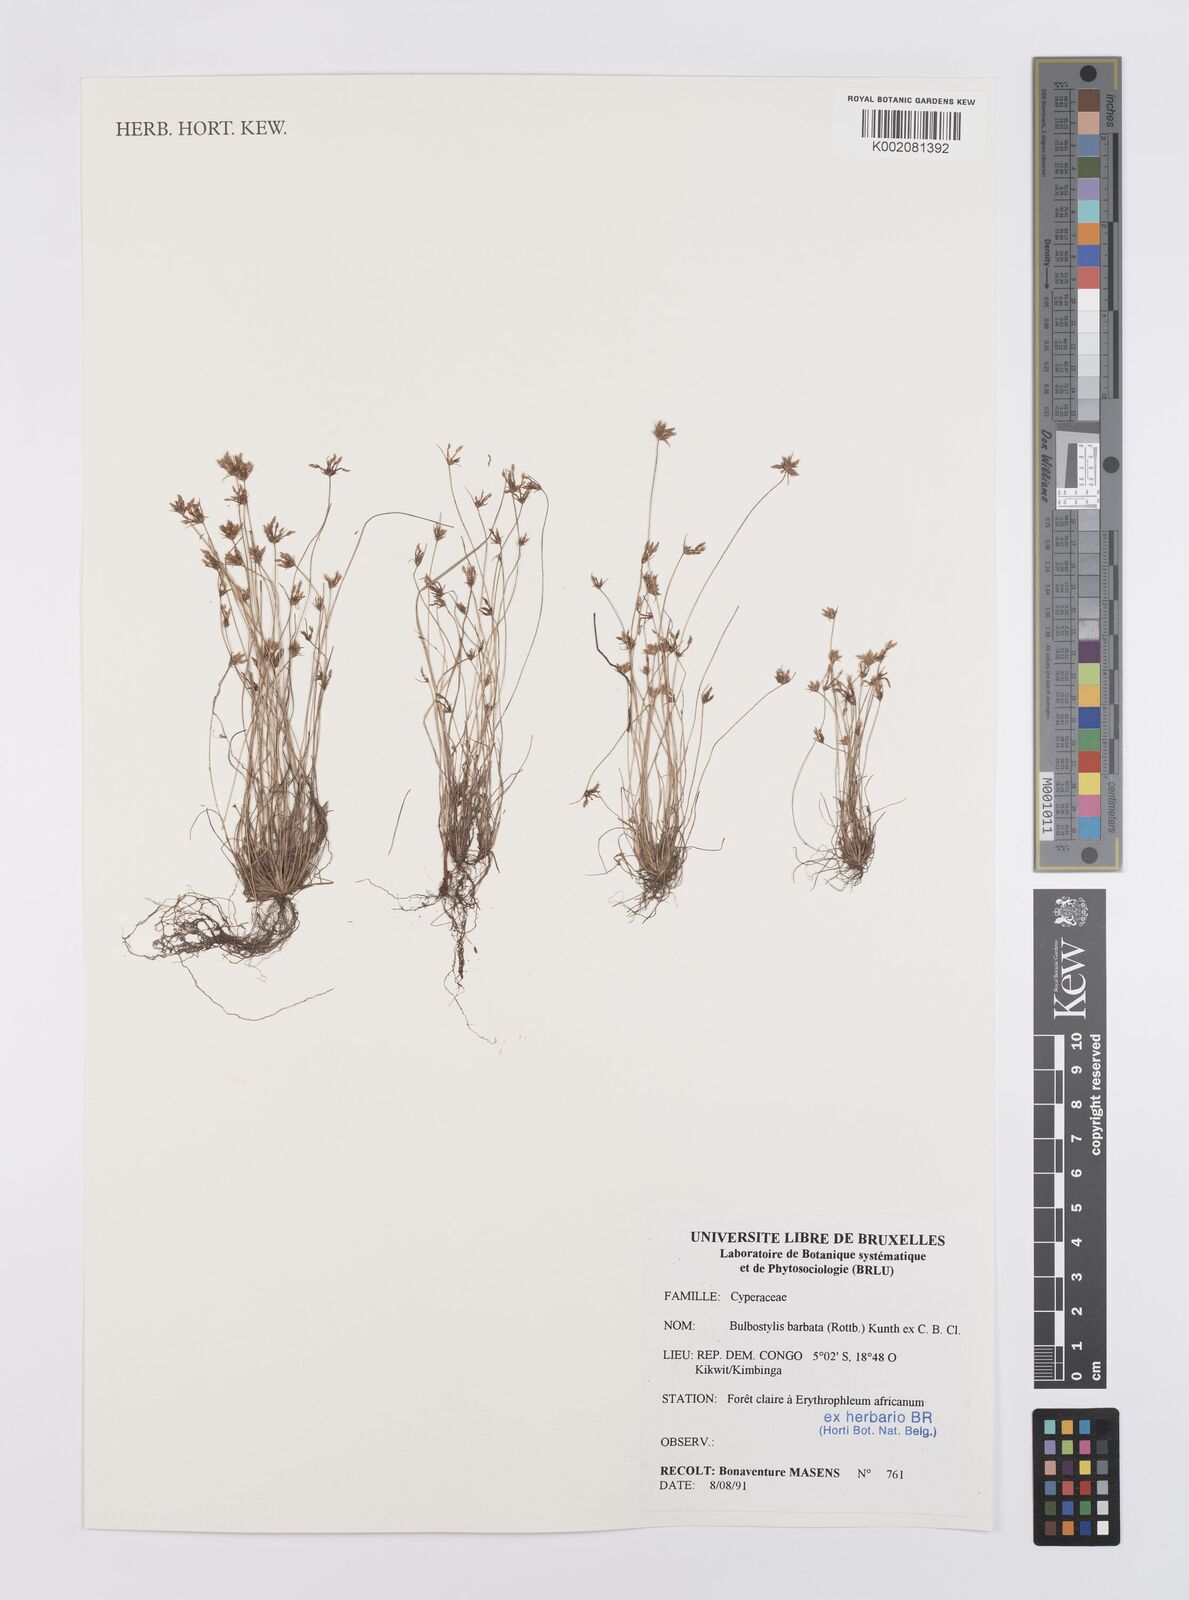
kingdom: Plantae
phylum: Tracheophyta
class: Liliopsida
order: Poales
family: Cyperaceae
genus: Bulbostylis
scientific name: Bulbostylis barbata
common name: Watergrass
